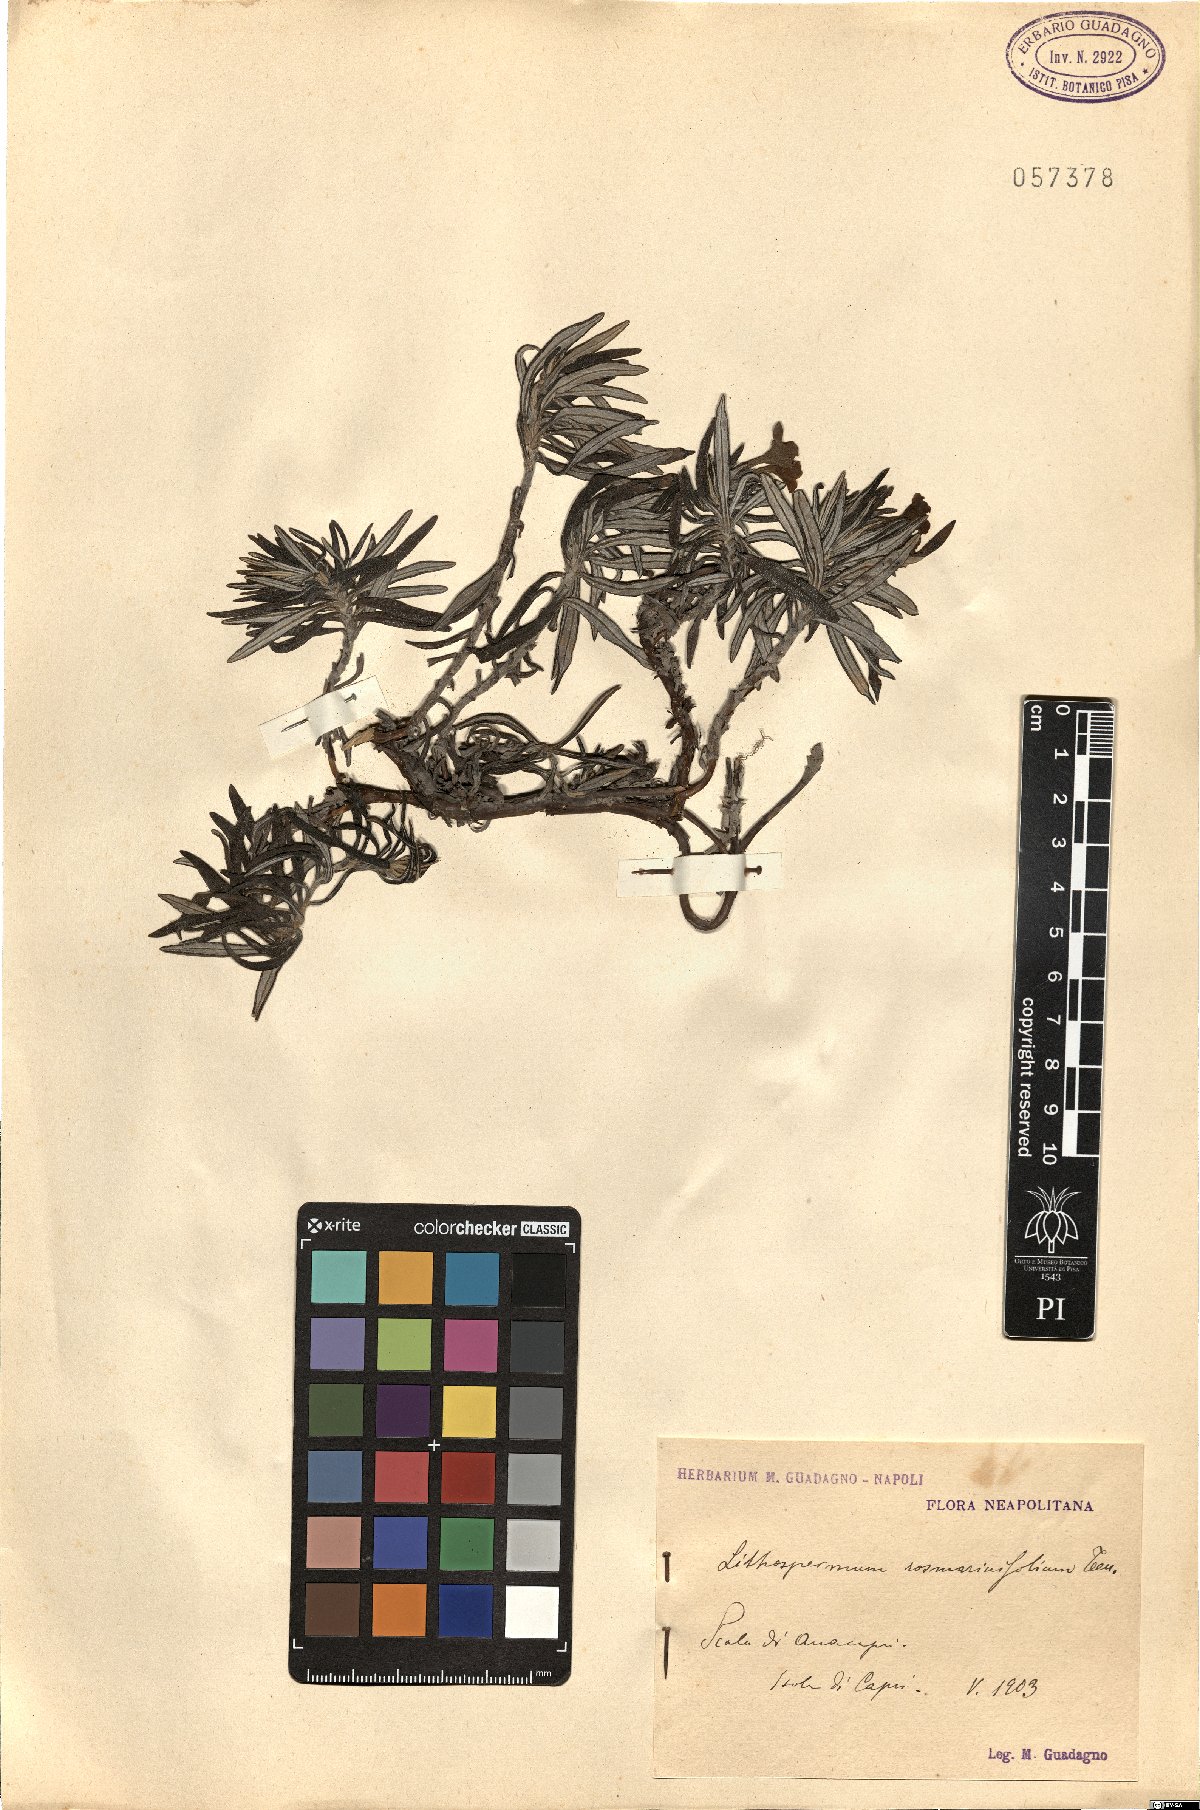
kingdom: Plantae
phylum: Tracheophyta
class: Magnoliopsida
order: Boraginales
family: Boraginaceae
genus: Glandora
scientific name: Glandora rosmarinifolia
